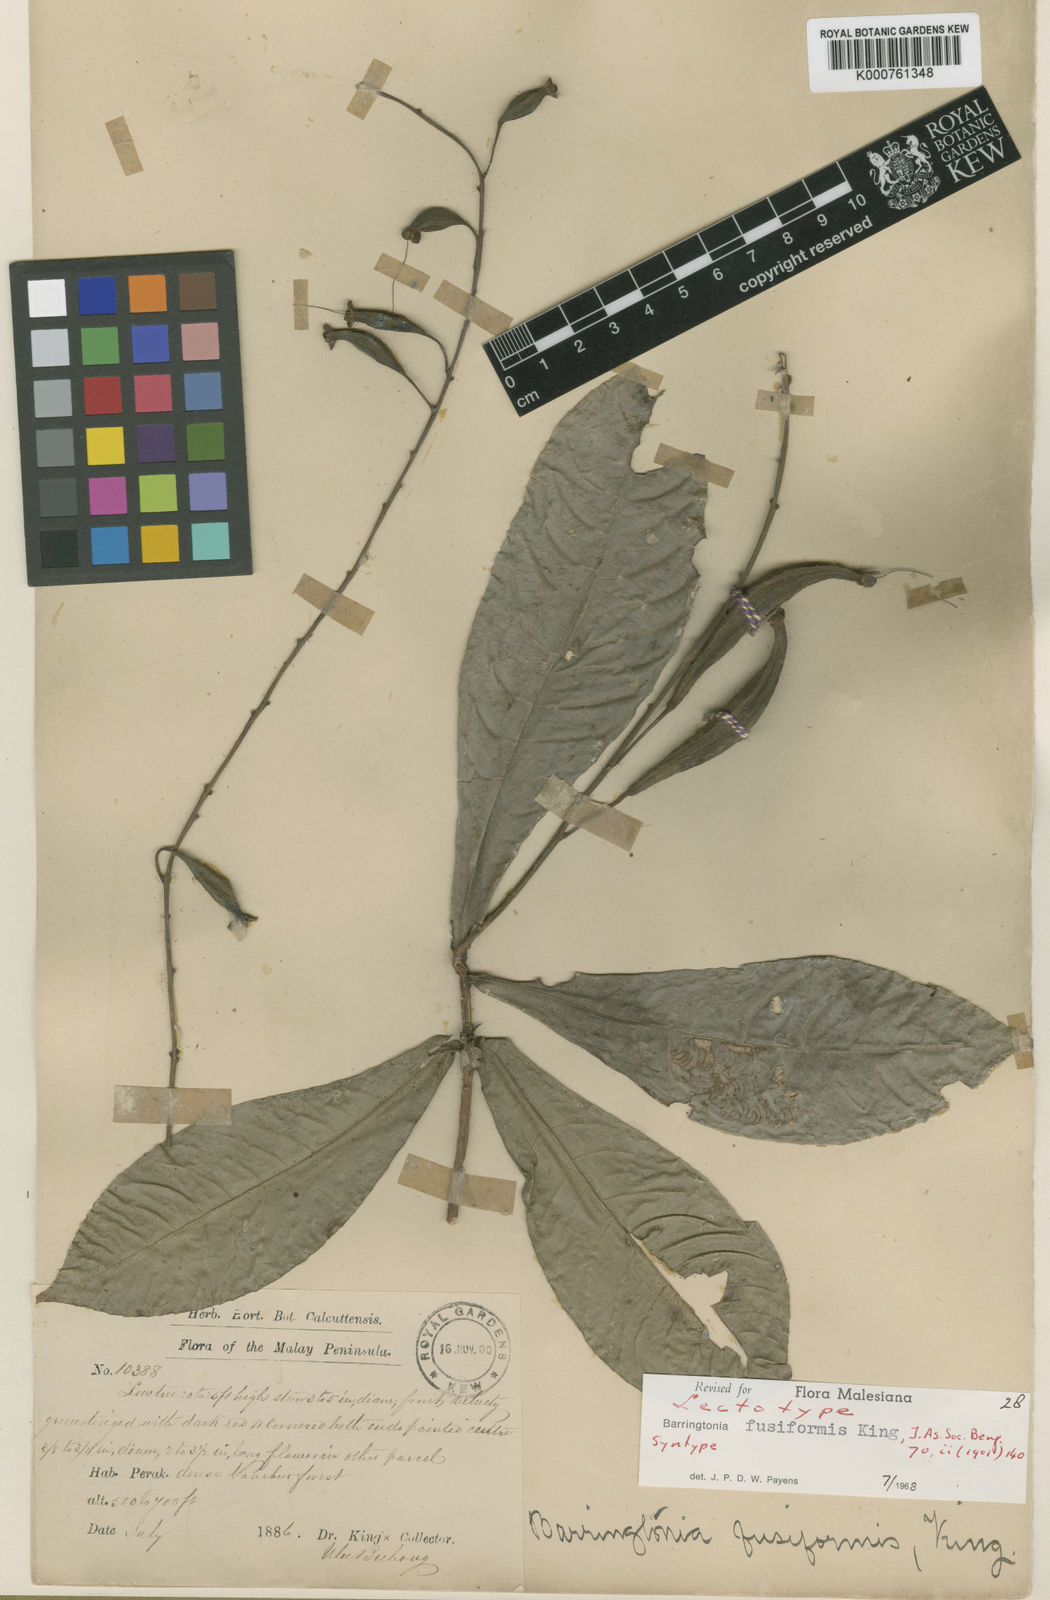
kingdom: Plantae
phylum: Tracheophyta
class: Magnoliopsida
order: Ericales
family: Lecythidaceae
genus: Barringtonia
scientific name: Barringtonia fusiformis
